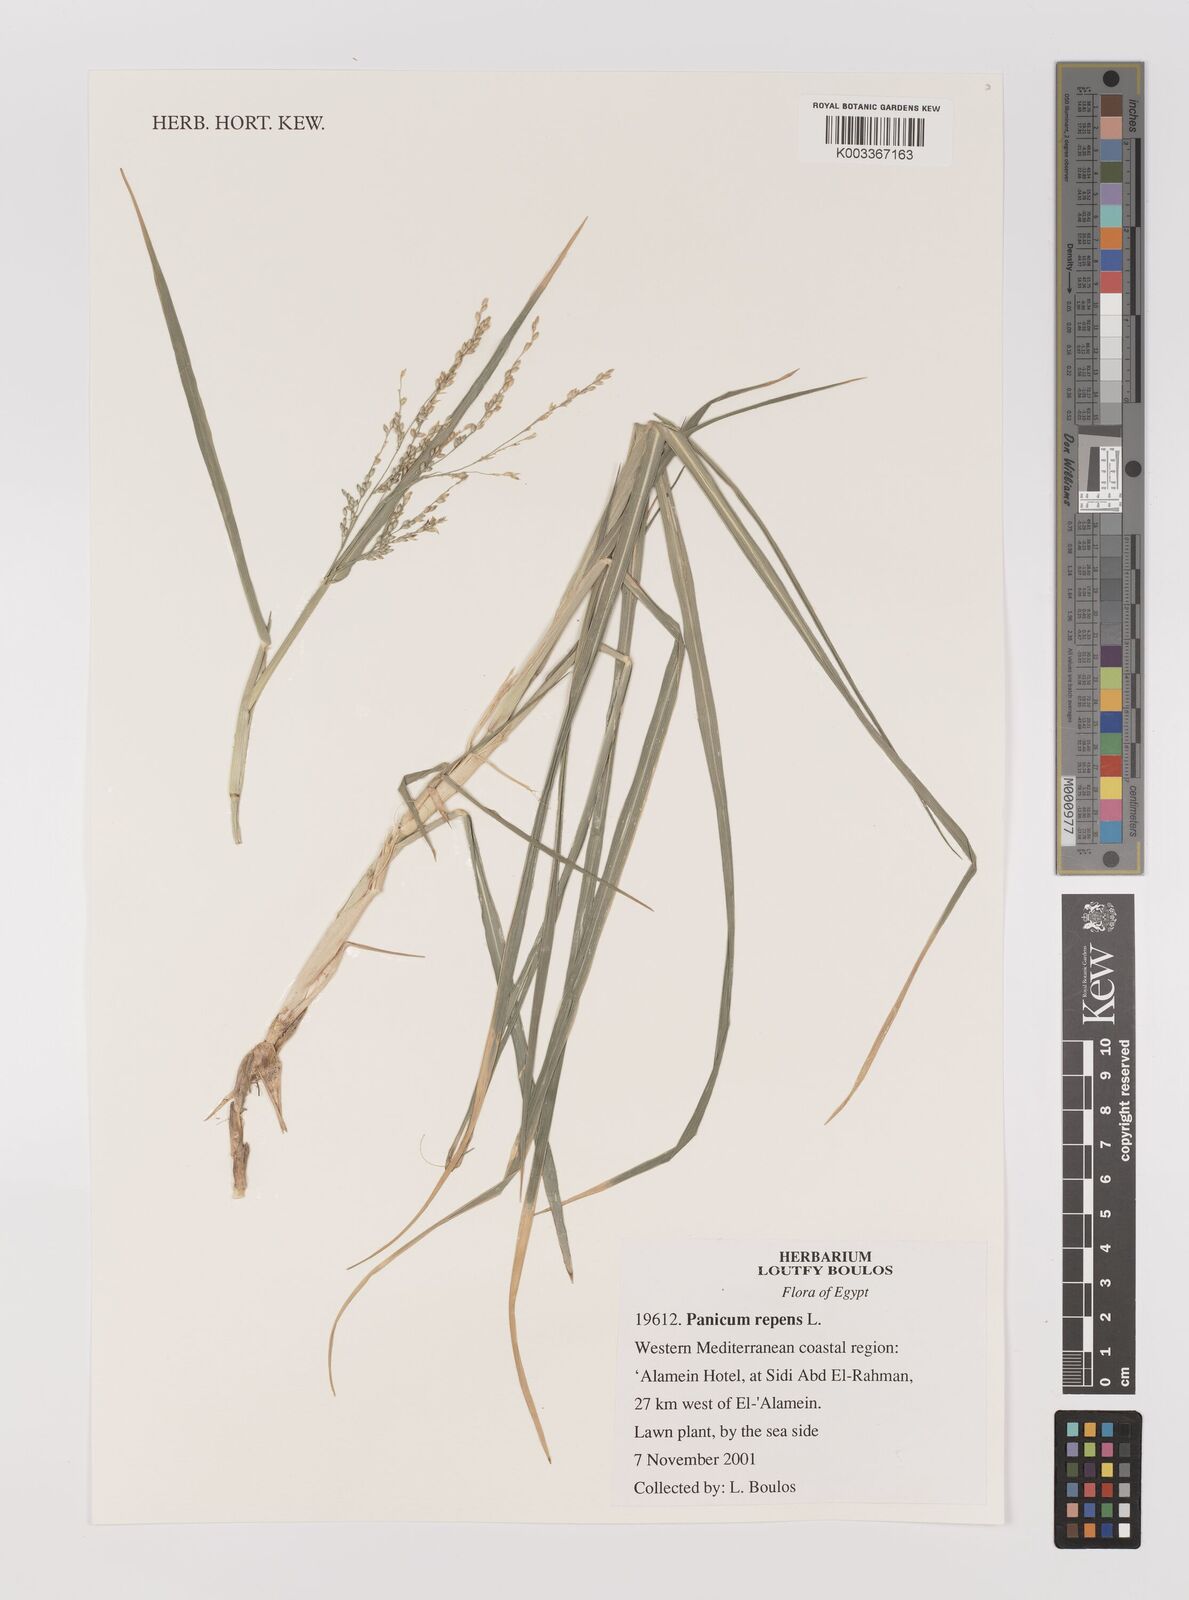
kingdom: Plantae
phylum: Tracheophyta
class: Liliopsida
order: Poales
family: Poaceae
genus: Panicum
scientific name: Panicum repens
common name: Torpedo grass
